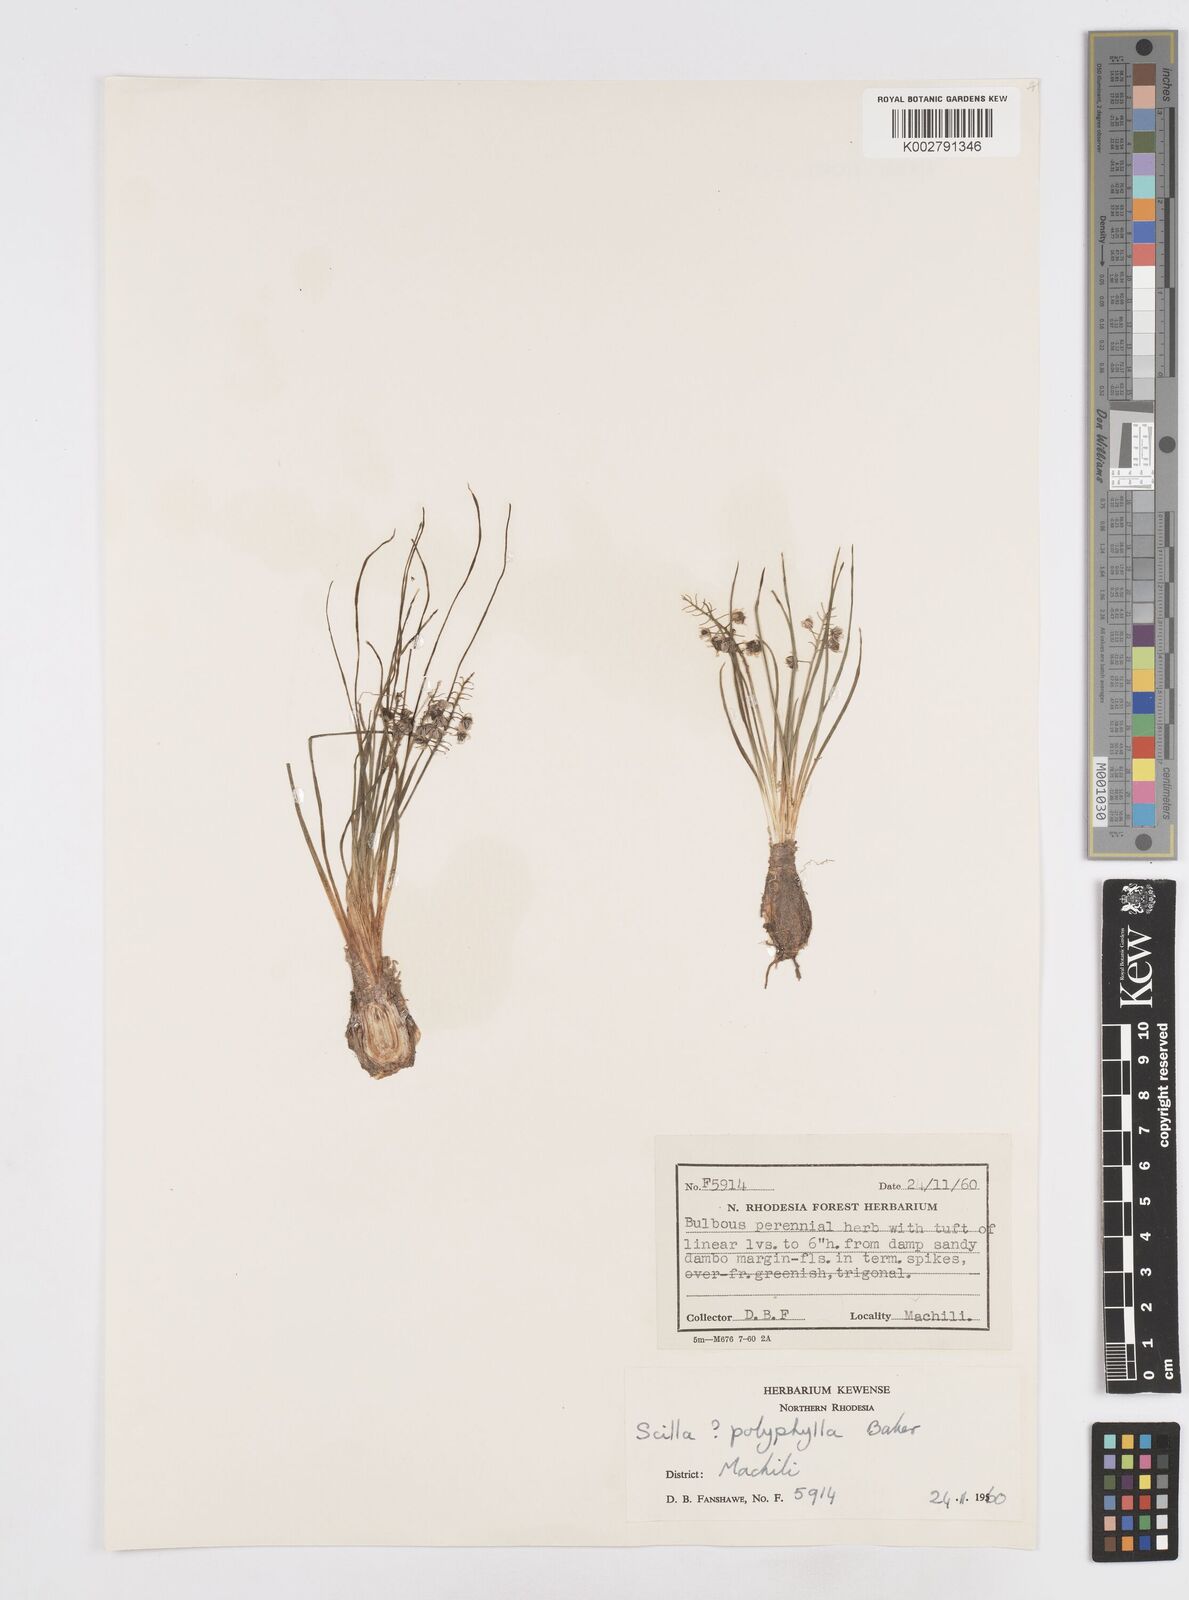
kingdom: Plantae
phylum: Tracheophyta
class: Liliopsida
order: Asparagales
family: Asparagaceae
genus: Scilla
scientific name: Scilla welwitschii
